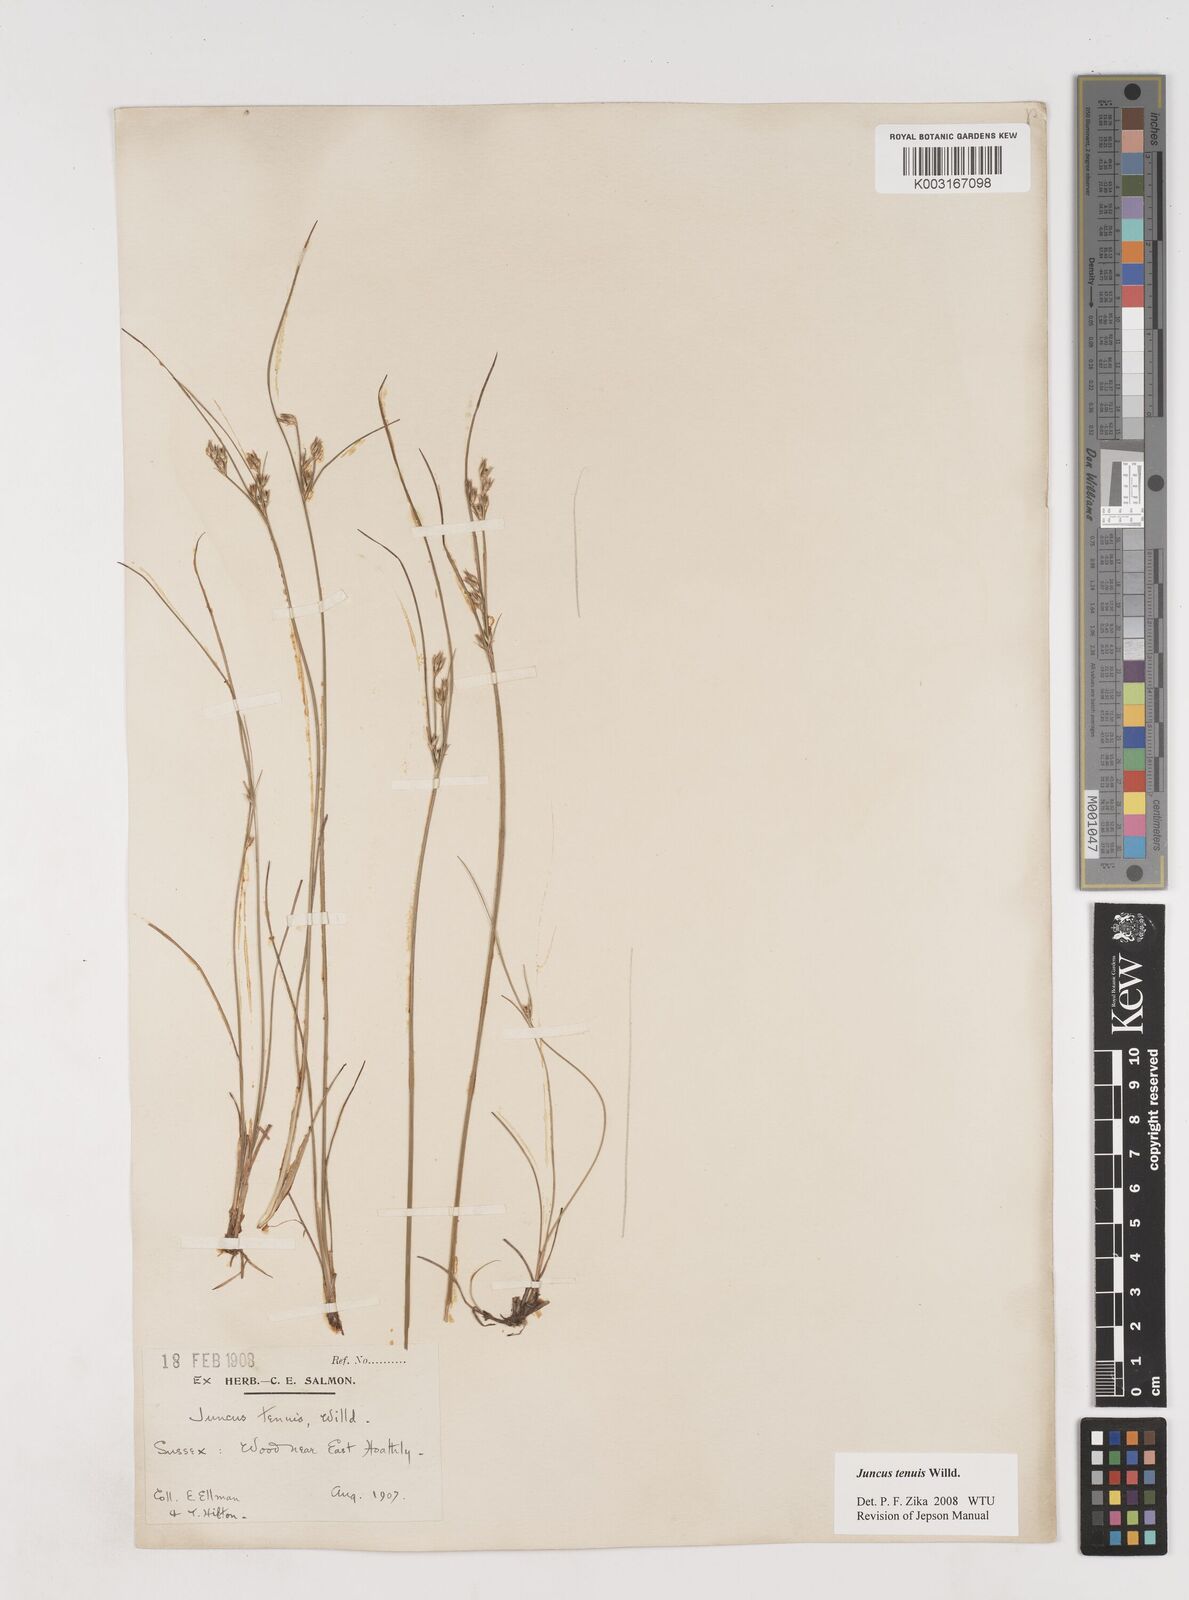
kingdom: Plantae
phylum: Tracheophyta
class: Liliopsida
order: Poales
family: Juncaceae
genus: Juncus
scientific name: Juncus tenuis
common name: Slender rush
